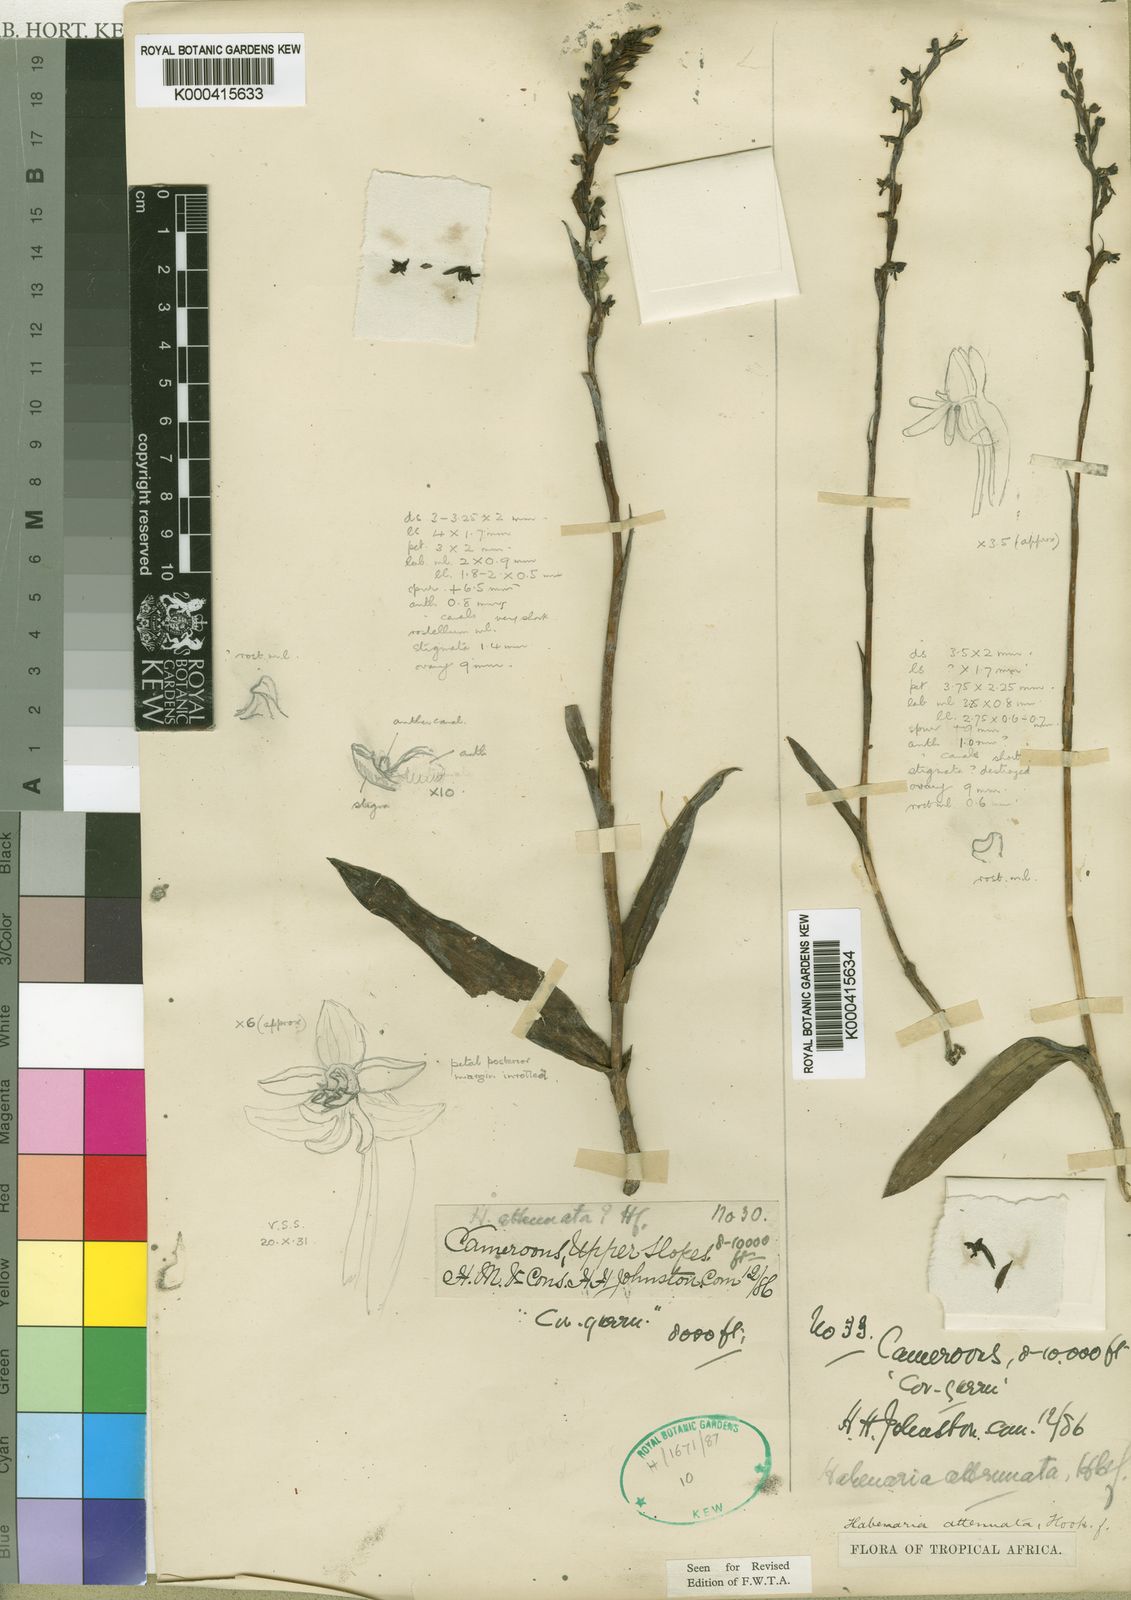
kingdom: Plantae
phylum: Tracheophyta
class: Liliopsida
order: Asparagales
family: Orchidaceae
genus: Habenaria
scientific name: Habenaria attenuata
